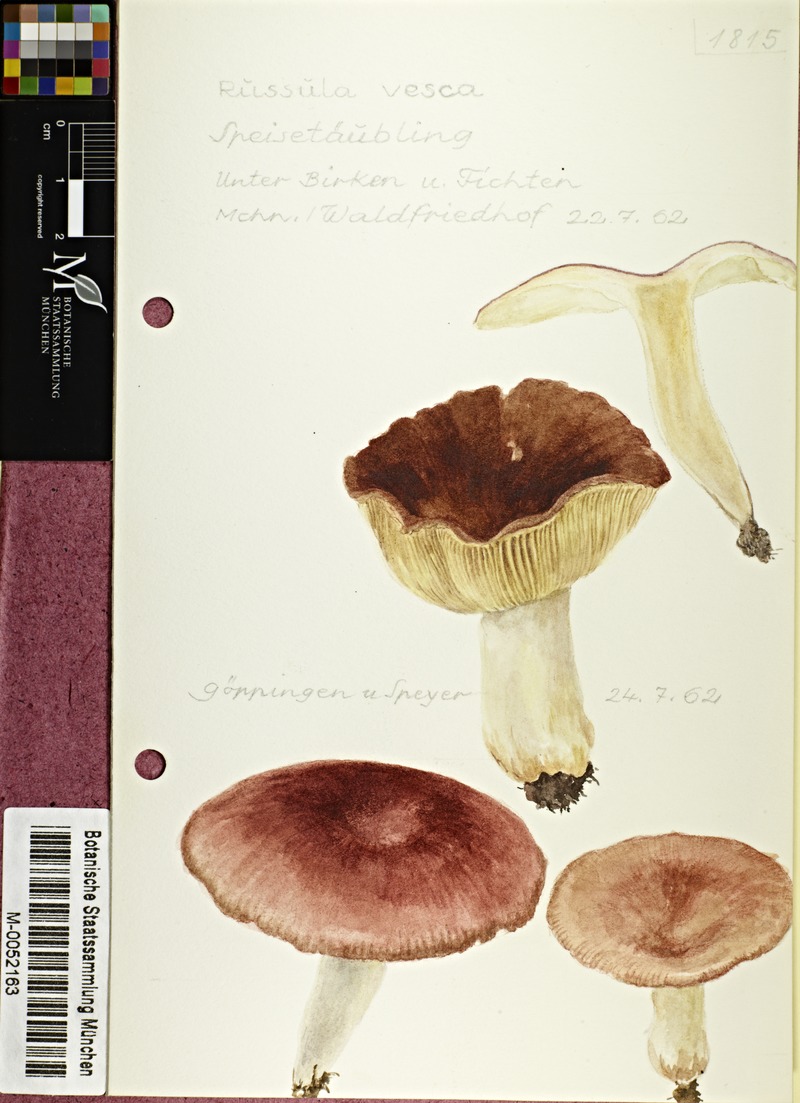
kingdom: Fungi
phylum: Basidiomycota
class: Agaricomycetes
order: Russulales
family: Russulaceae
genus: Russula
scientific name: Russula vesca
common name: Bare-toothed russula
